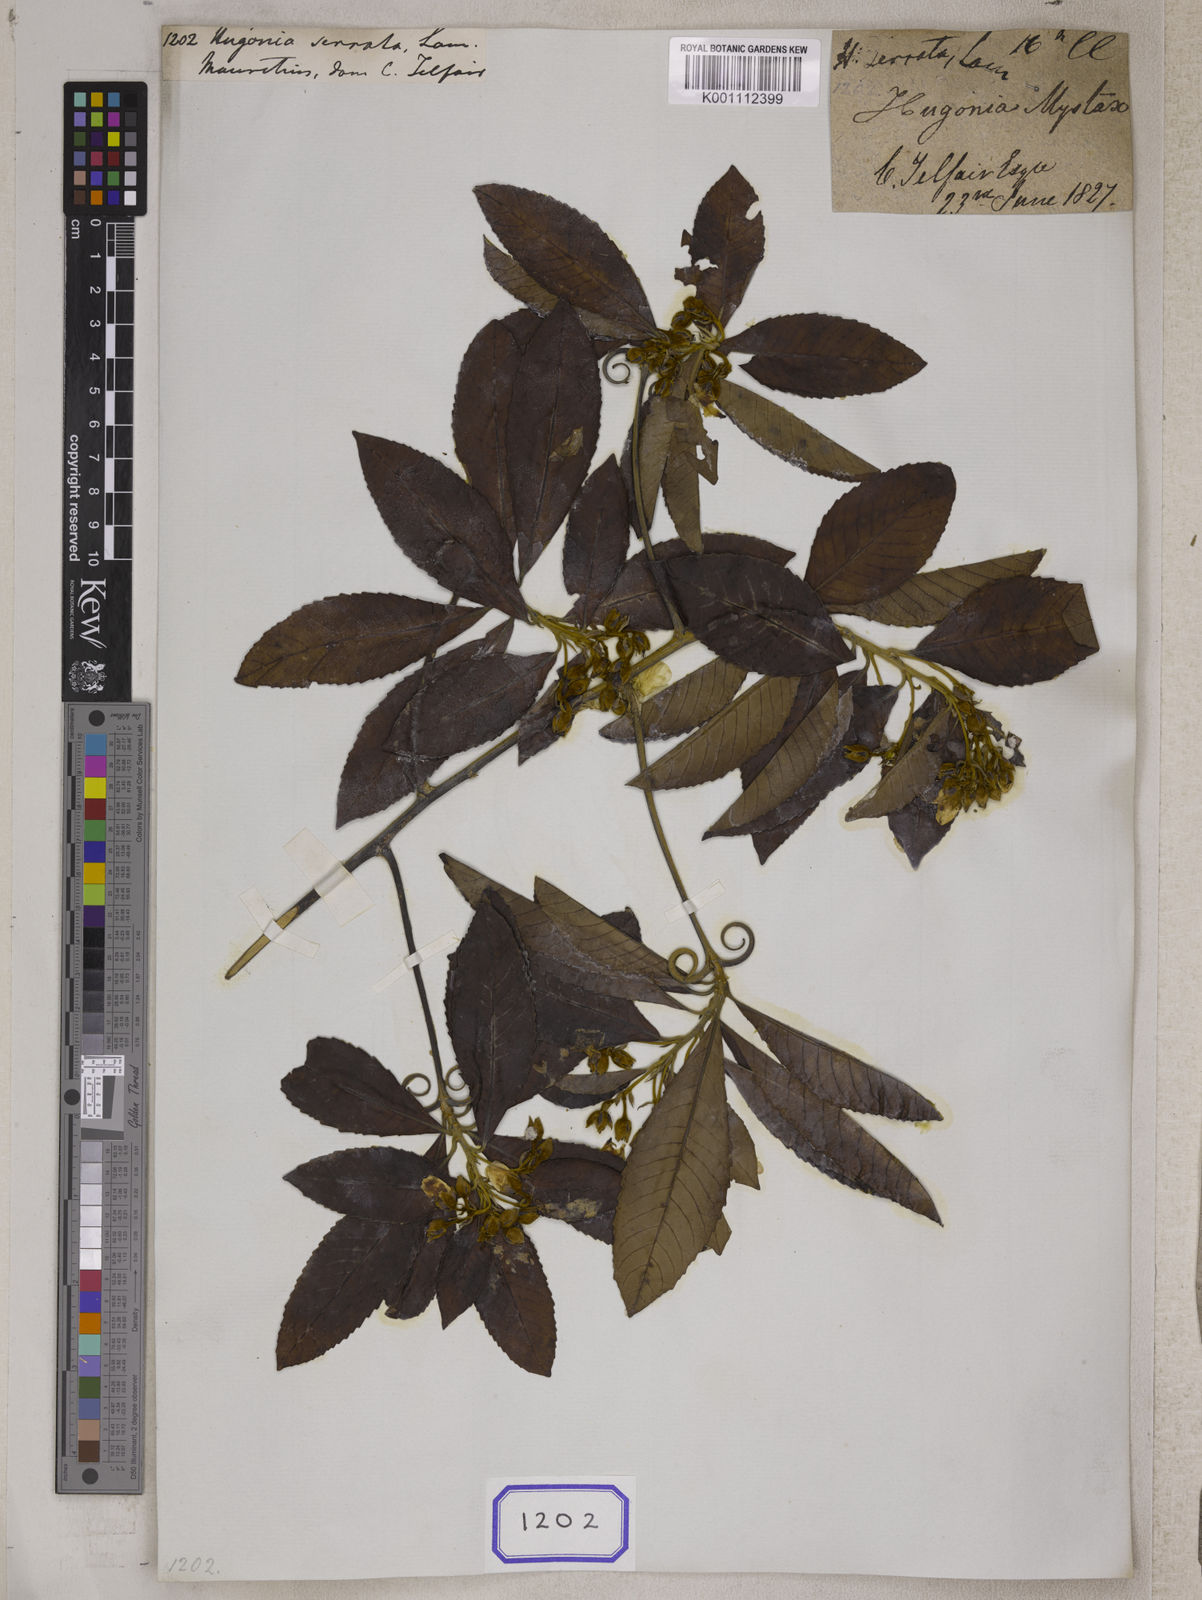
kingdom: Plantae
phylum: Tracheophyta
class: Magnoliopsida
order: Malpighiales
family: Linaceae
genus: Hugonia
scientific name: Hugonia serrata
